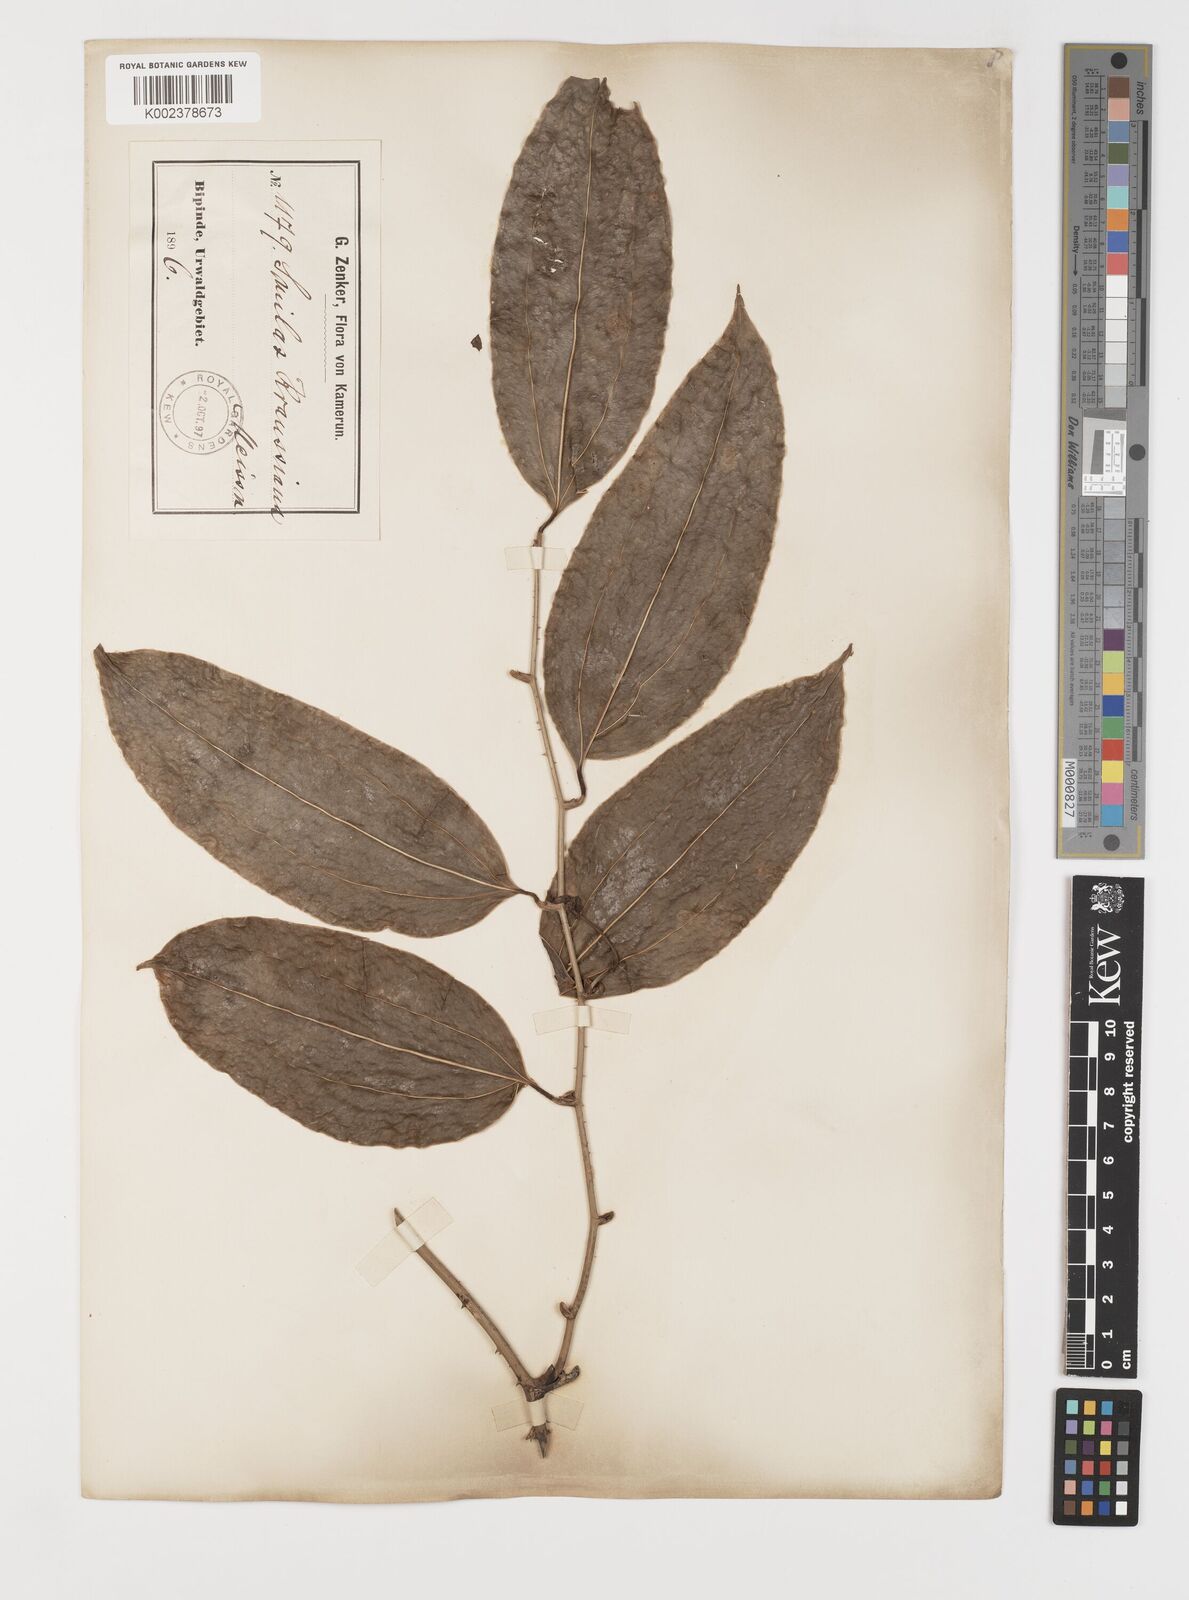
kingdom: Plantae
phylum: Tracheophyta
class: Liliopsida
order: Liliales
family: Smilacaceae
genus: Smilax
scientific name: Smilax anceps
